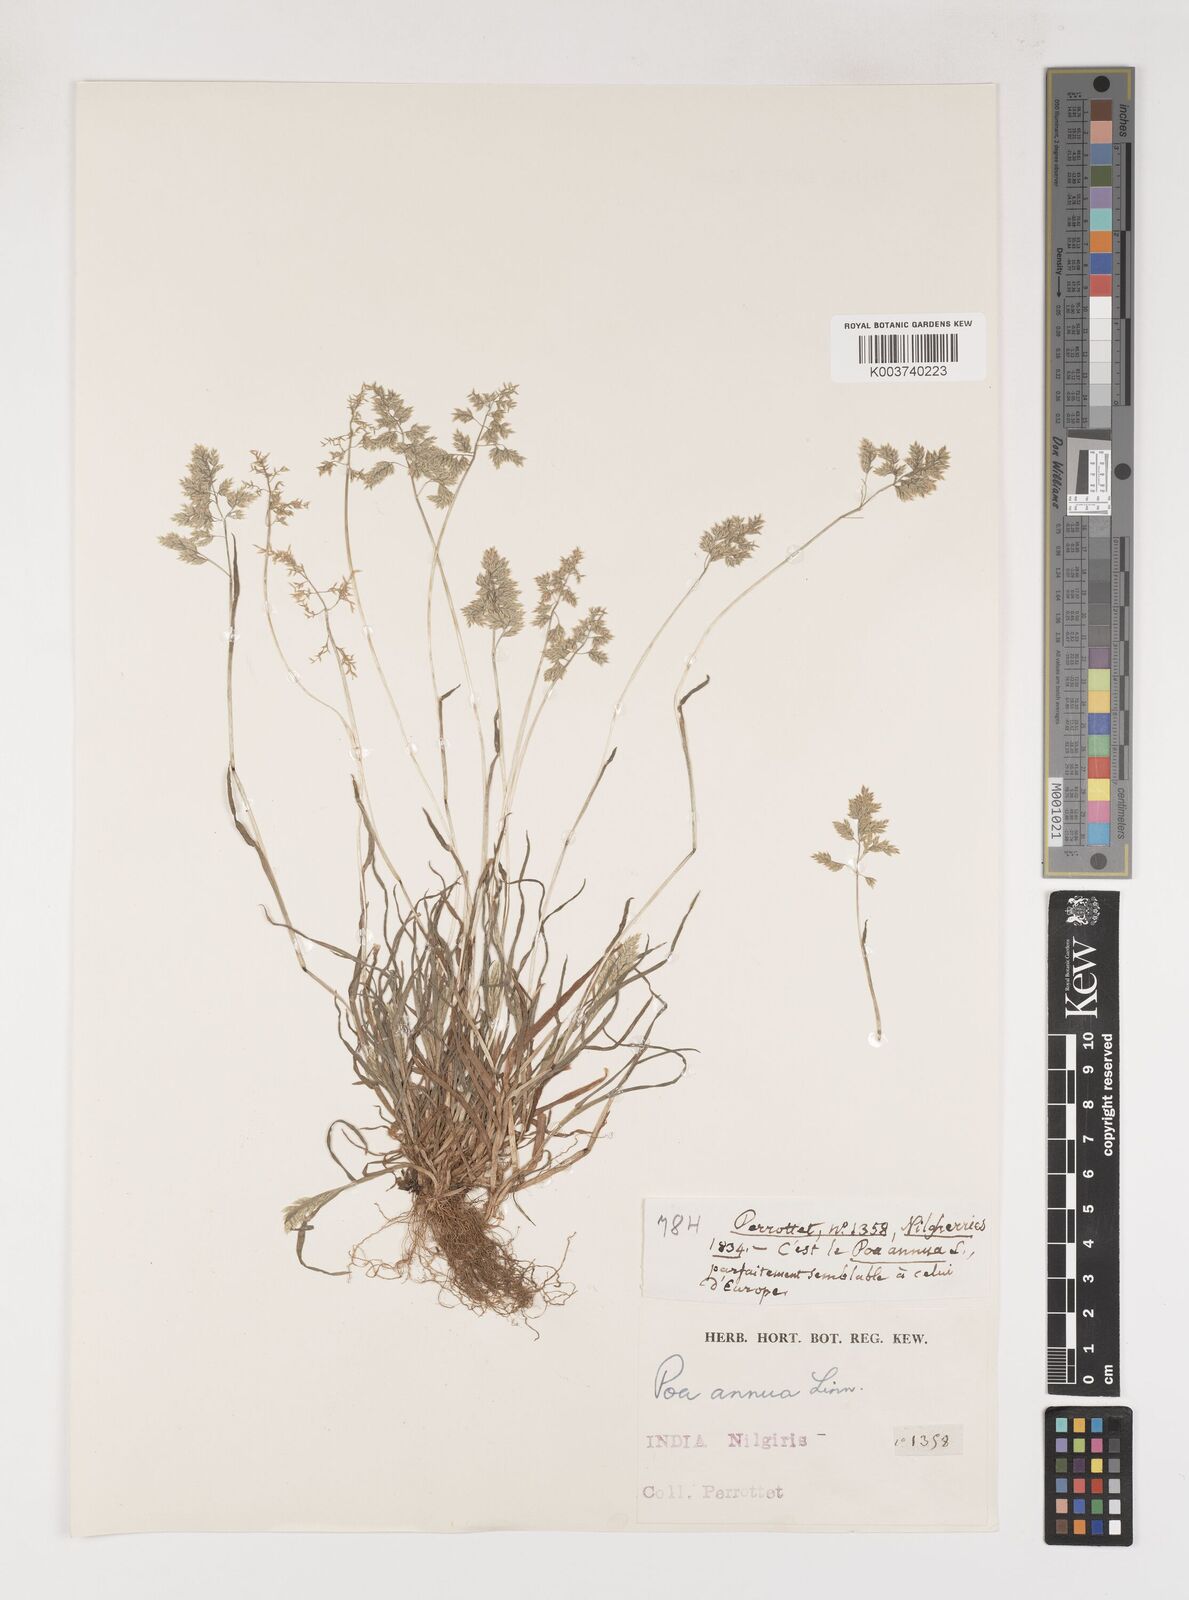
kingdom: Plantae
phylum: Tracheophyta
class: Liliopsida
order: Poales
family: Poaceae
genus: Poa
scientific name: Poa annua
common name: Annual bluegrass
